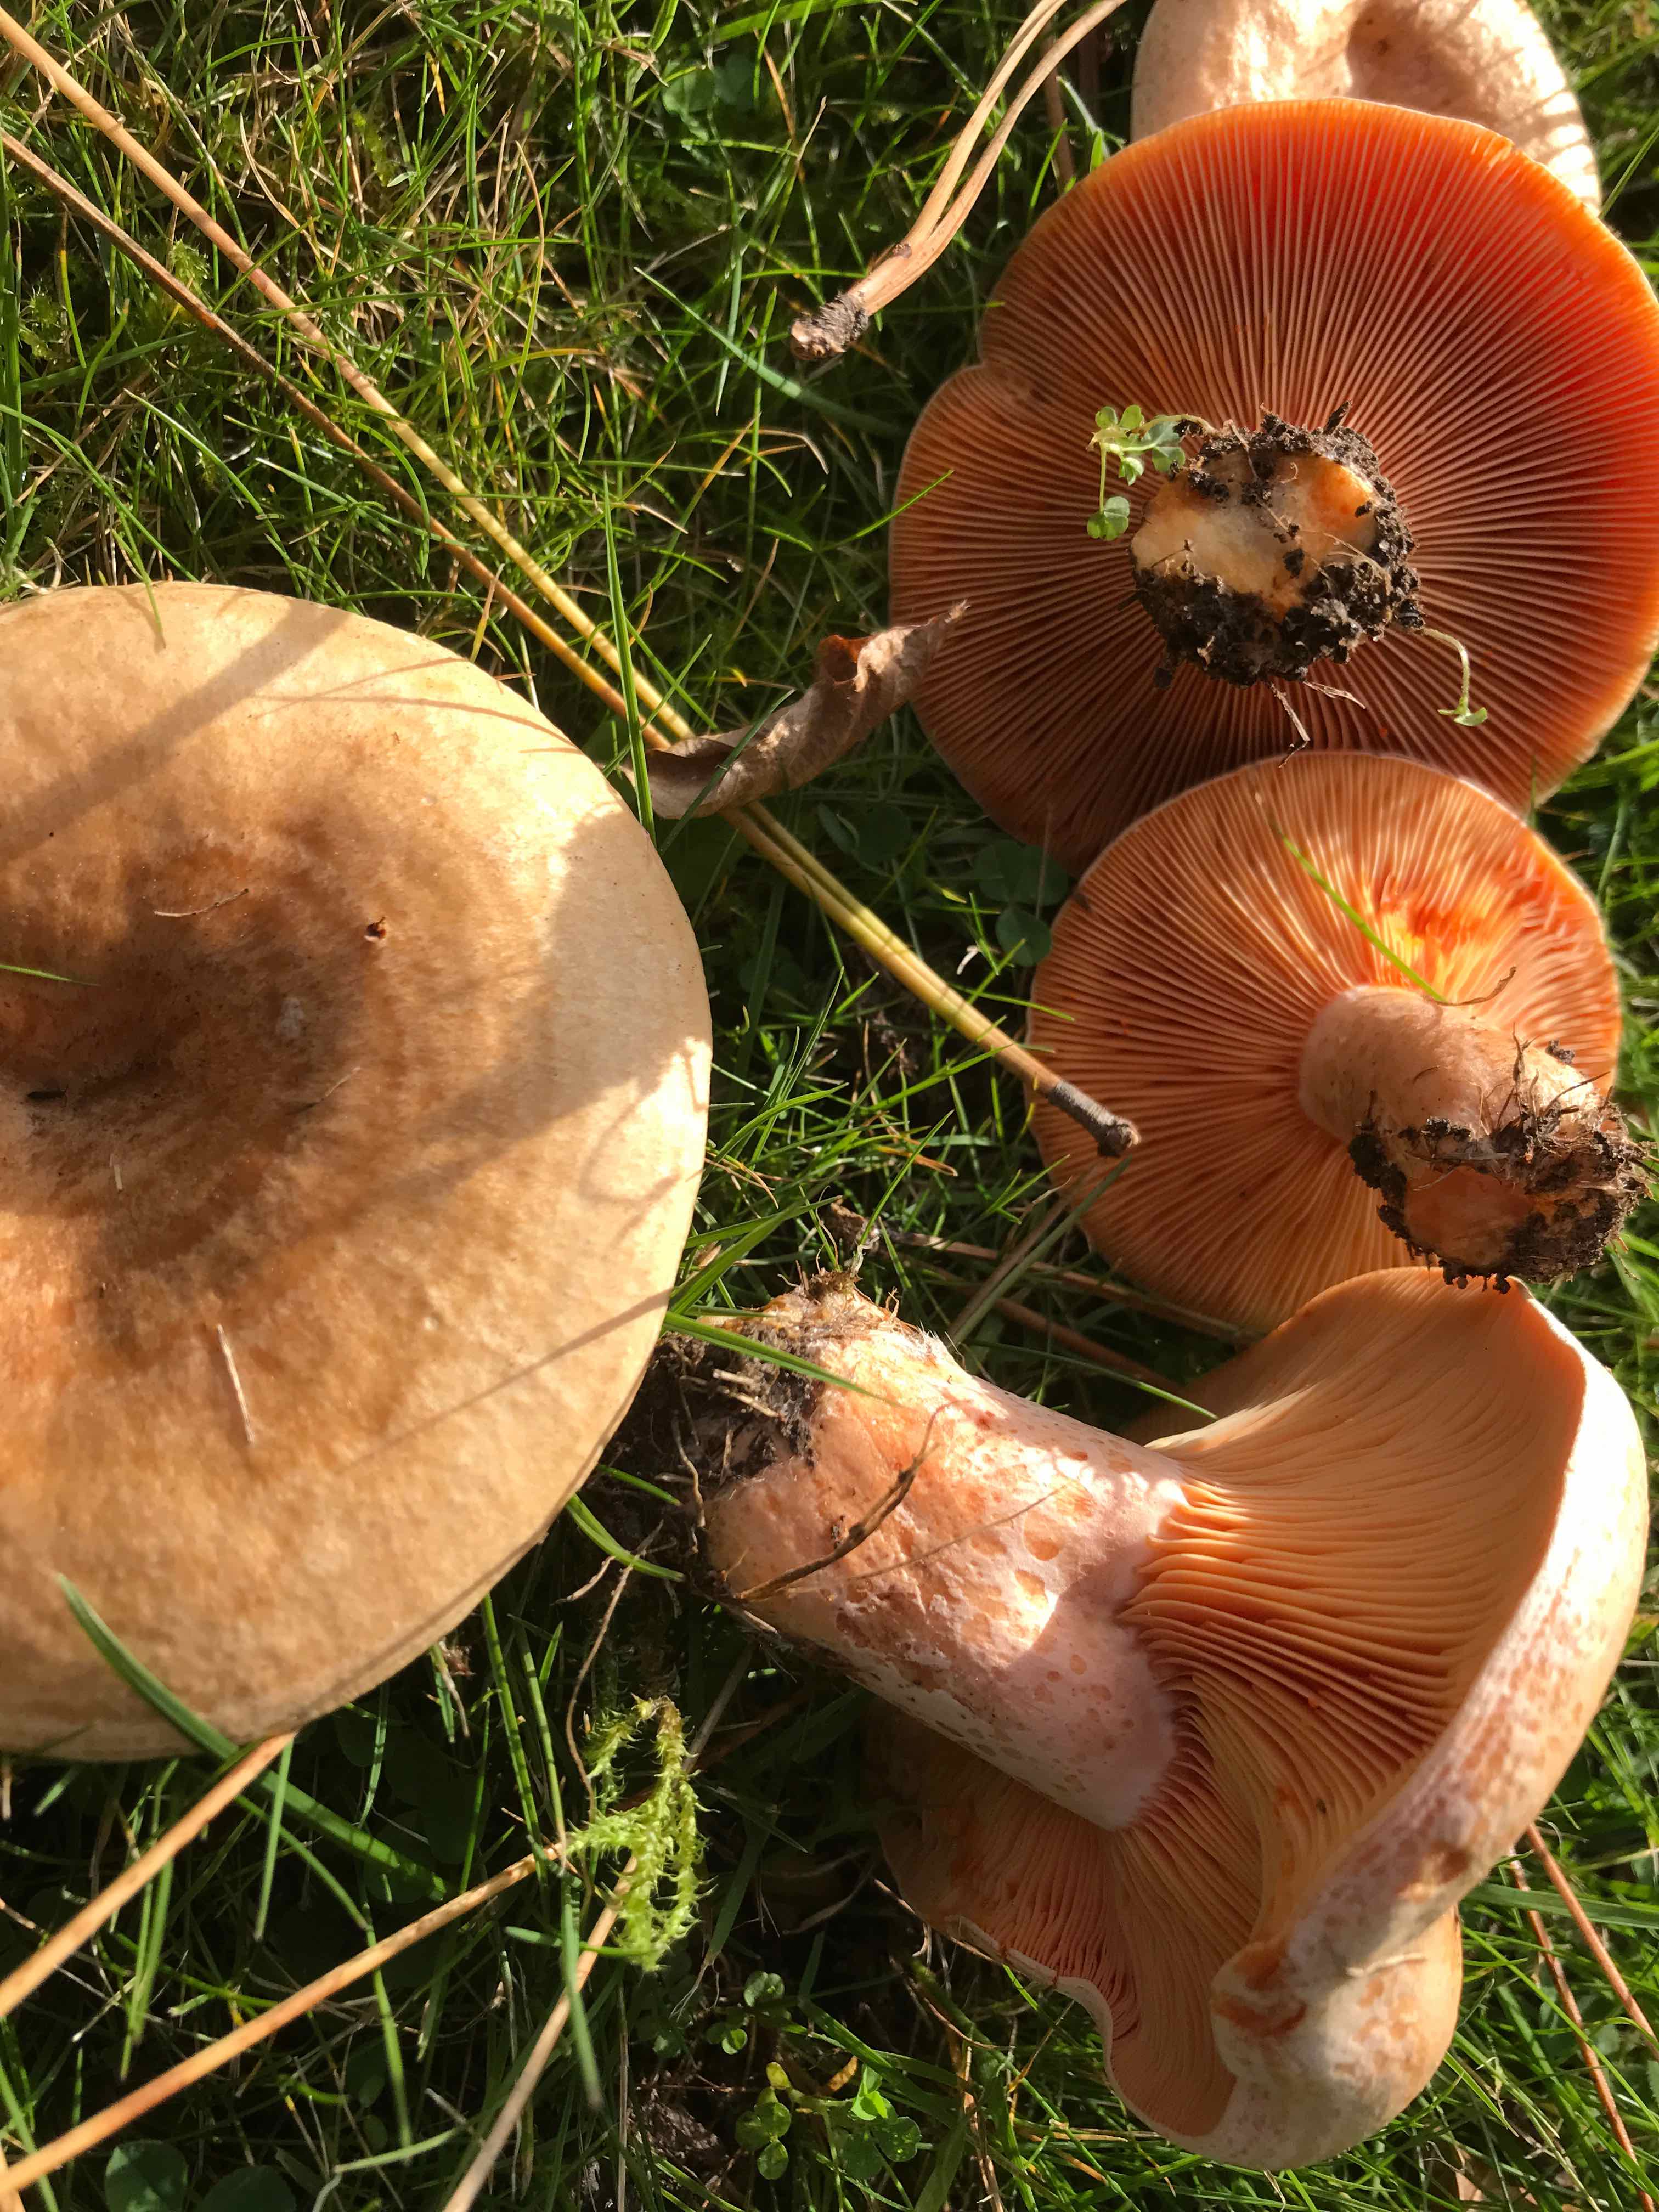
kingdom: Fungi
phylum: Basidiomycota
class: Agaricomycetes
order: Russulales
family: Russulaceae
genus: Lactarius
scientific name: Lactarius deliciosus
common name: velsmagende mælkehat
